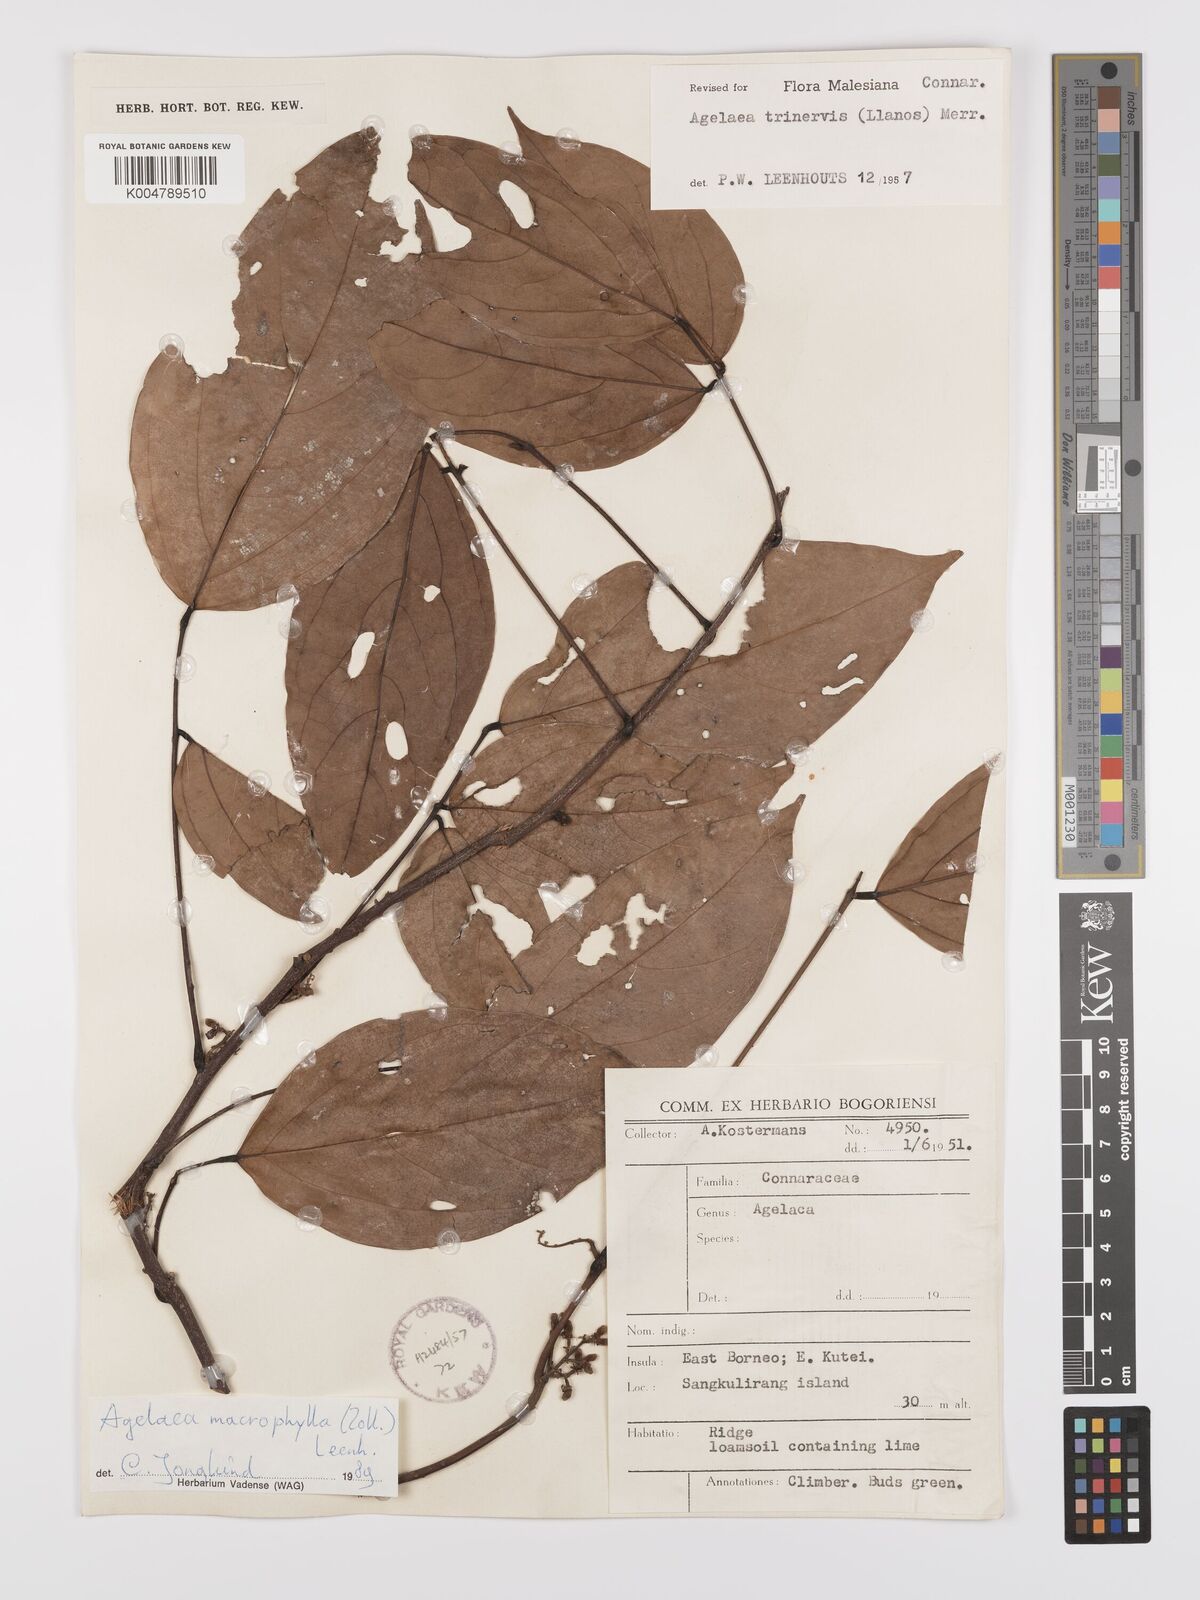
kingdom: Plantae
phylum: Tracheophyta
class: Magnoliopsida
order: Oxalidales
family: Connaraceae
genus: Agelaea
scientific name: Agelaea trinervis
